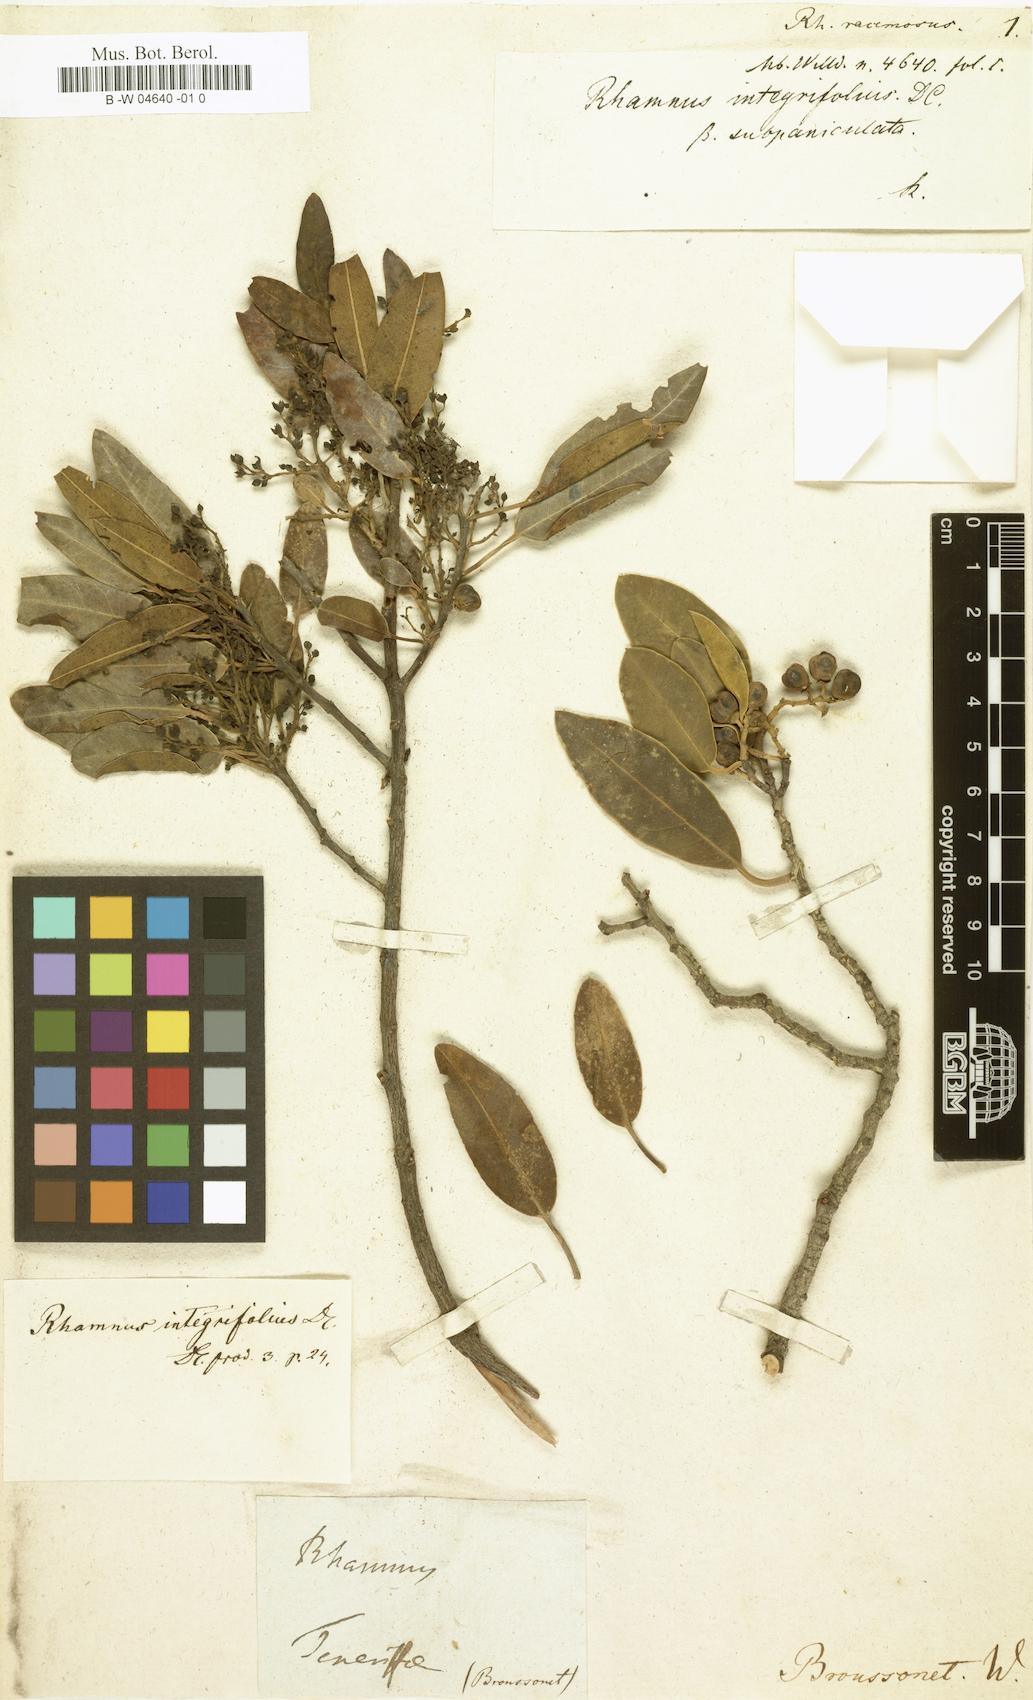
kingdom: Plantae
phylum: Tracheophyta
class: Magnoliopsida
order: Rosales
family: Rhamnaceae
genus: Rhamnus
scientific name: Rhamnus alaternus
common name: Mediterranean buckthorn
